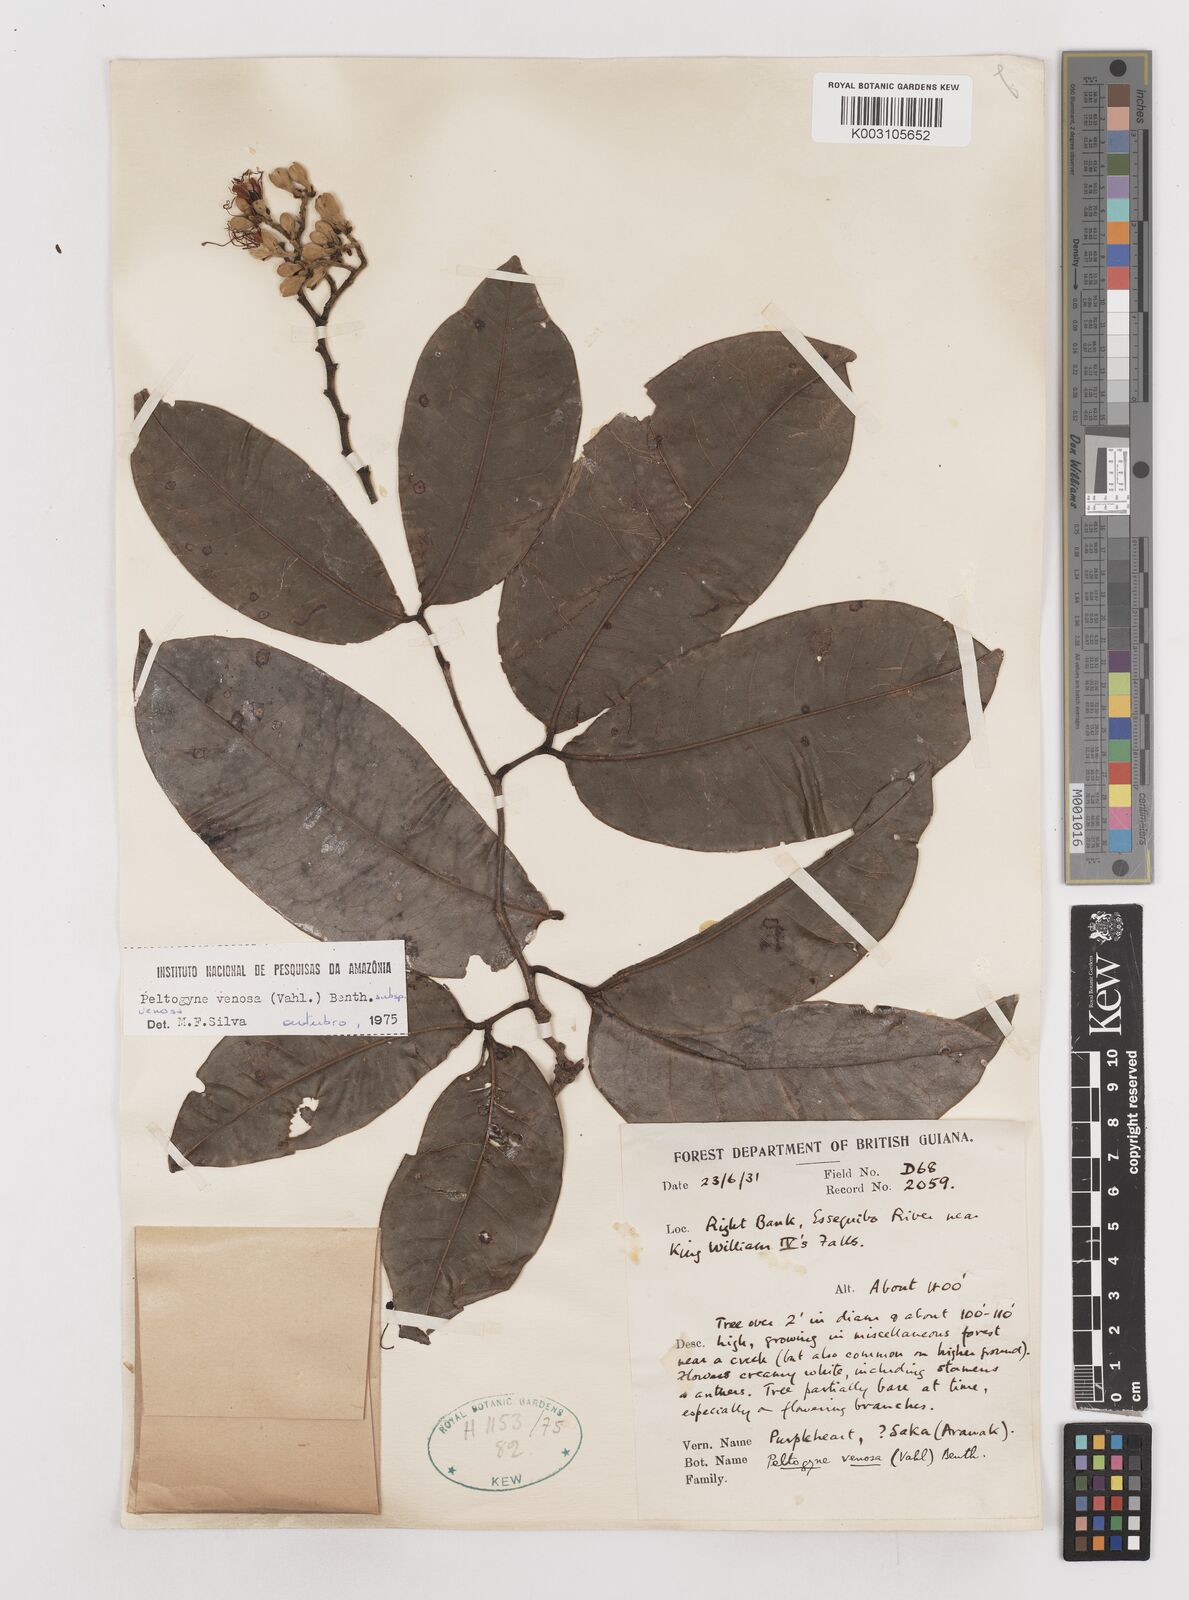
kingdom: Plantae
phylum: Tracheophyta
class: Magnoliopsida
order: Fabales
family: Fabaceae
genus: Peltogyne
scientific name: Peltogyne venosa
